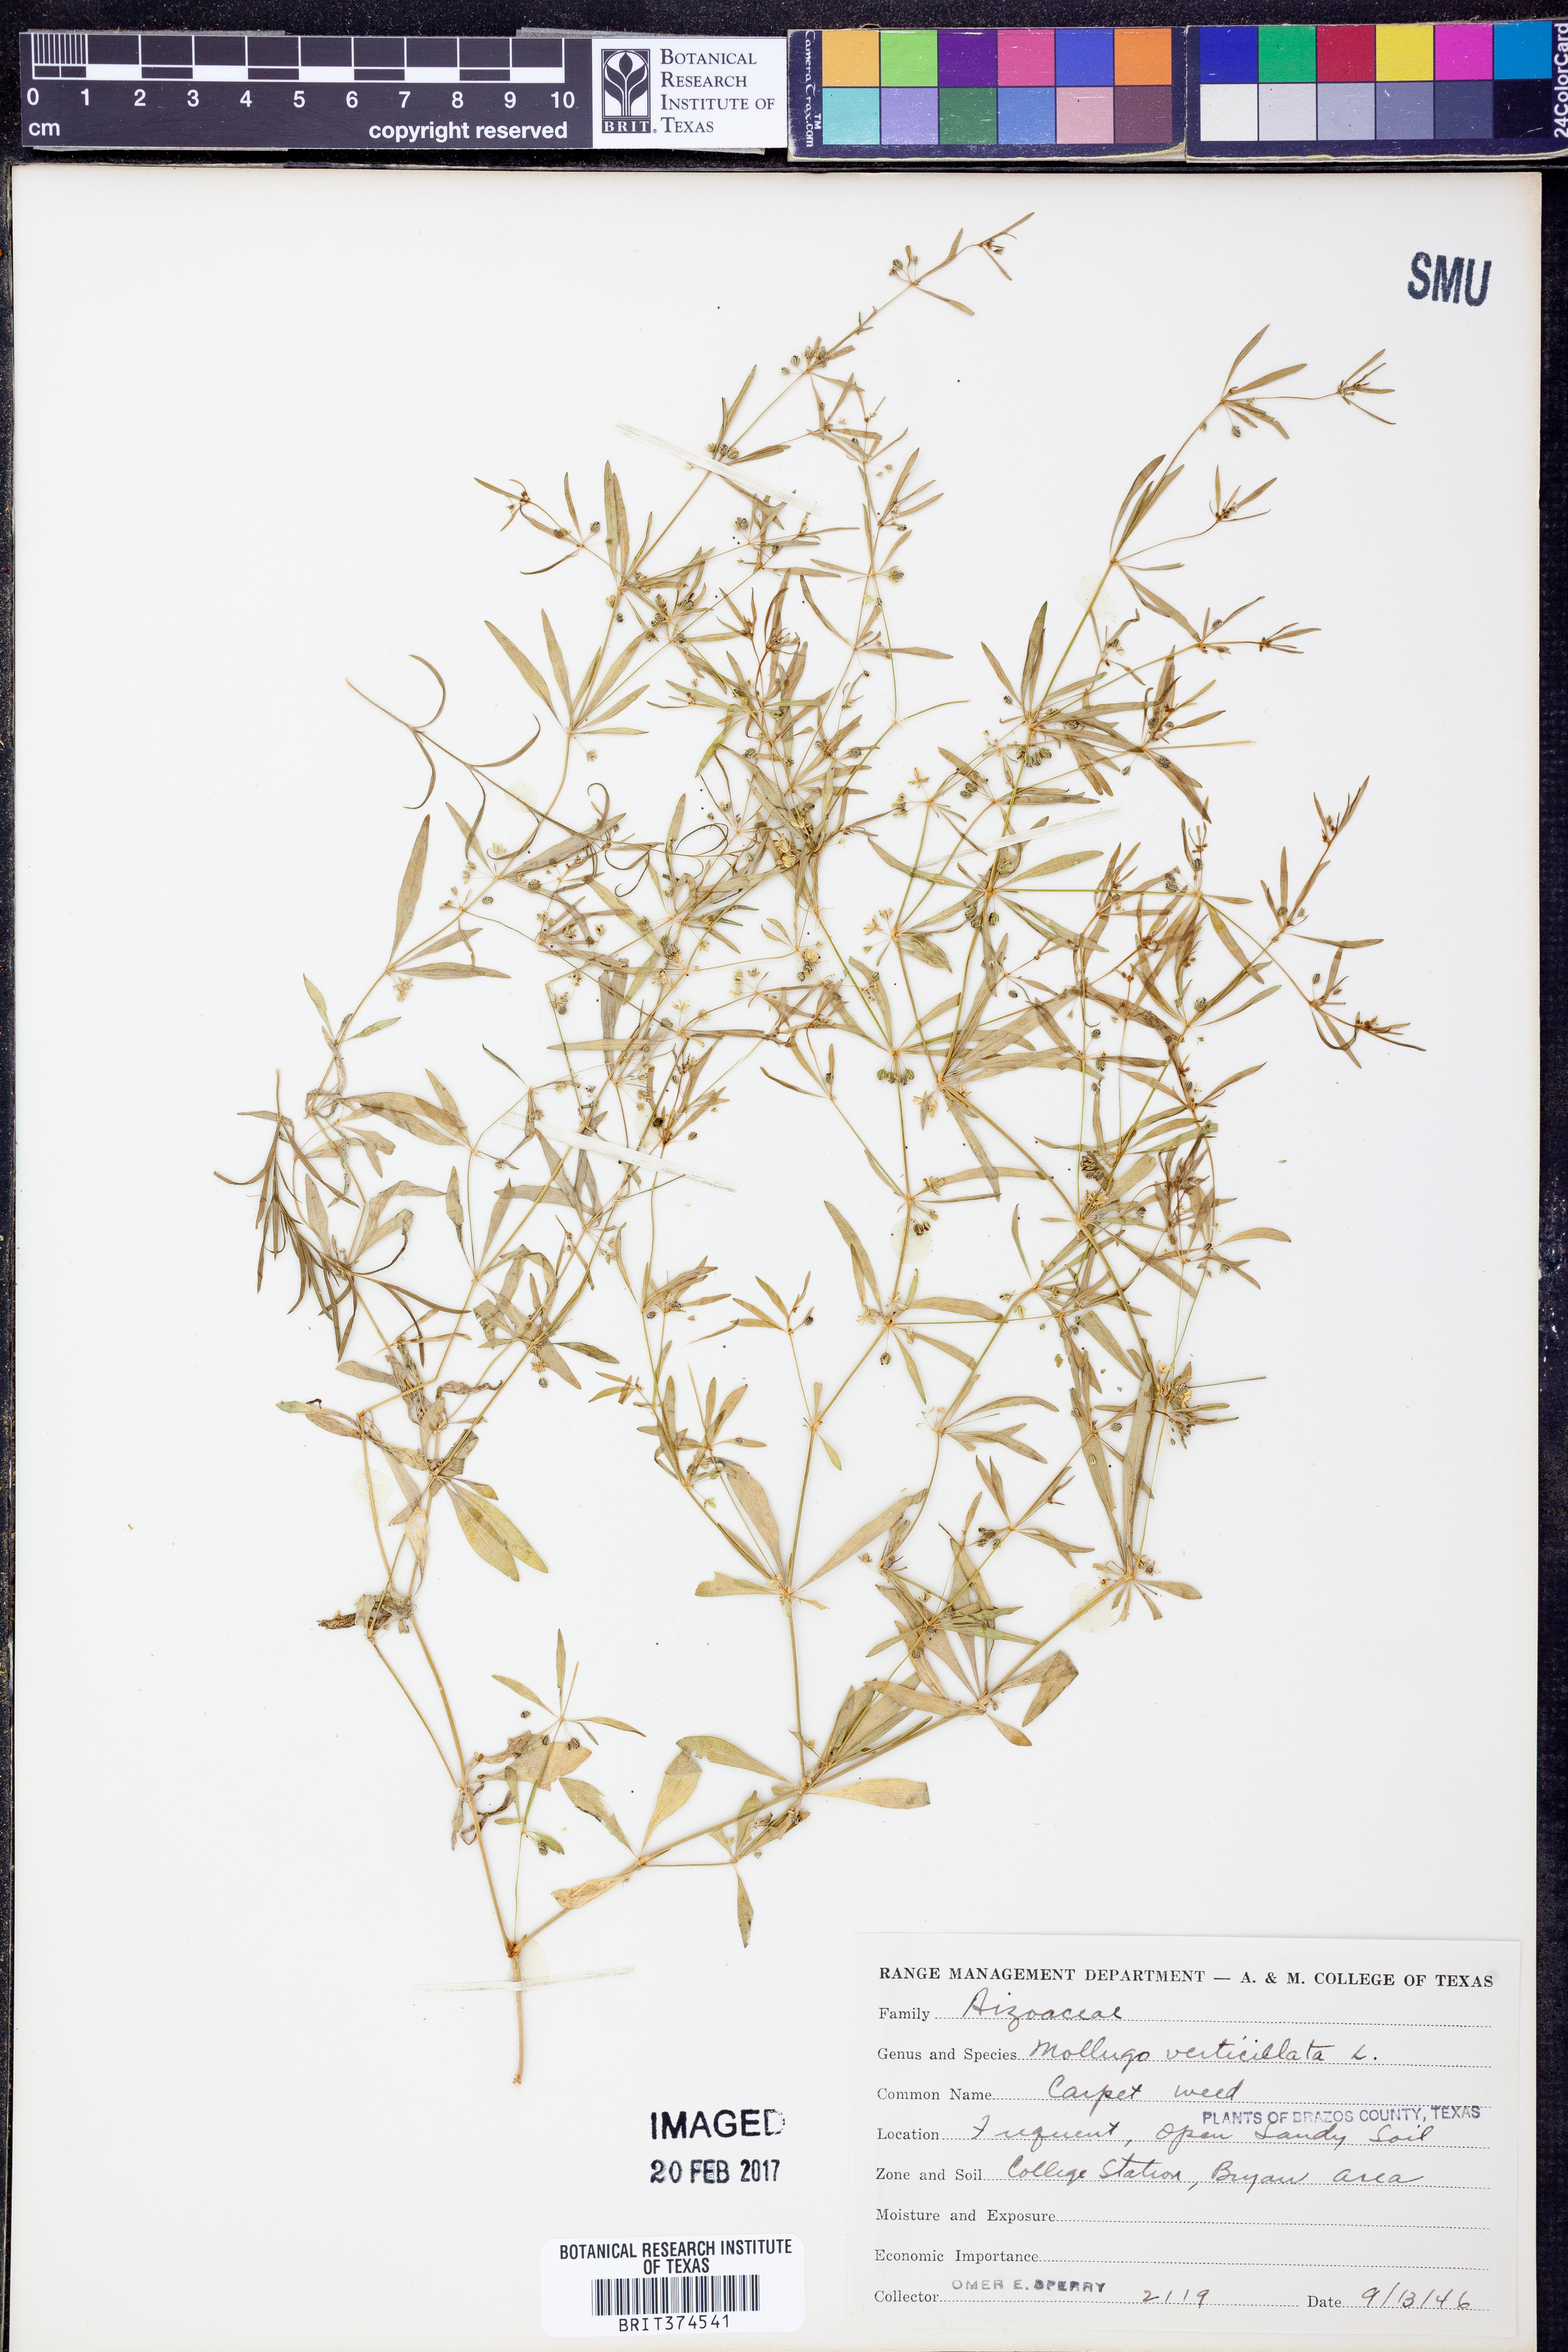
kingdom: Plantae
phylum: Tracheophyta
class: Magnoliopsida
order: Caryophyllales
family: Molluginaceae
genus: Mollugo
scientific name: Mollugo verticillata
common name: Green carpetweed
